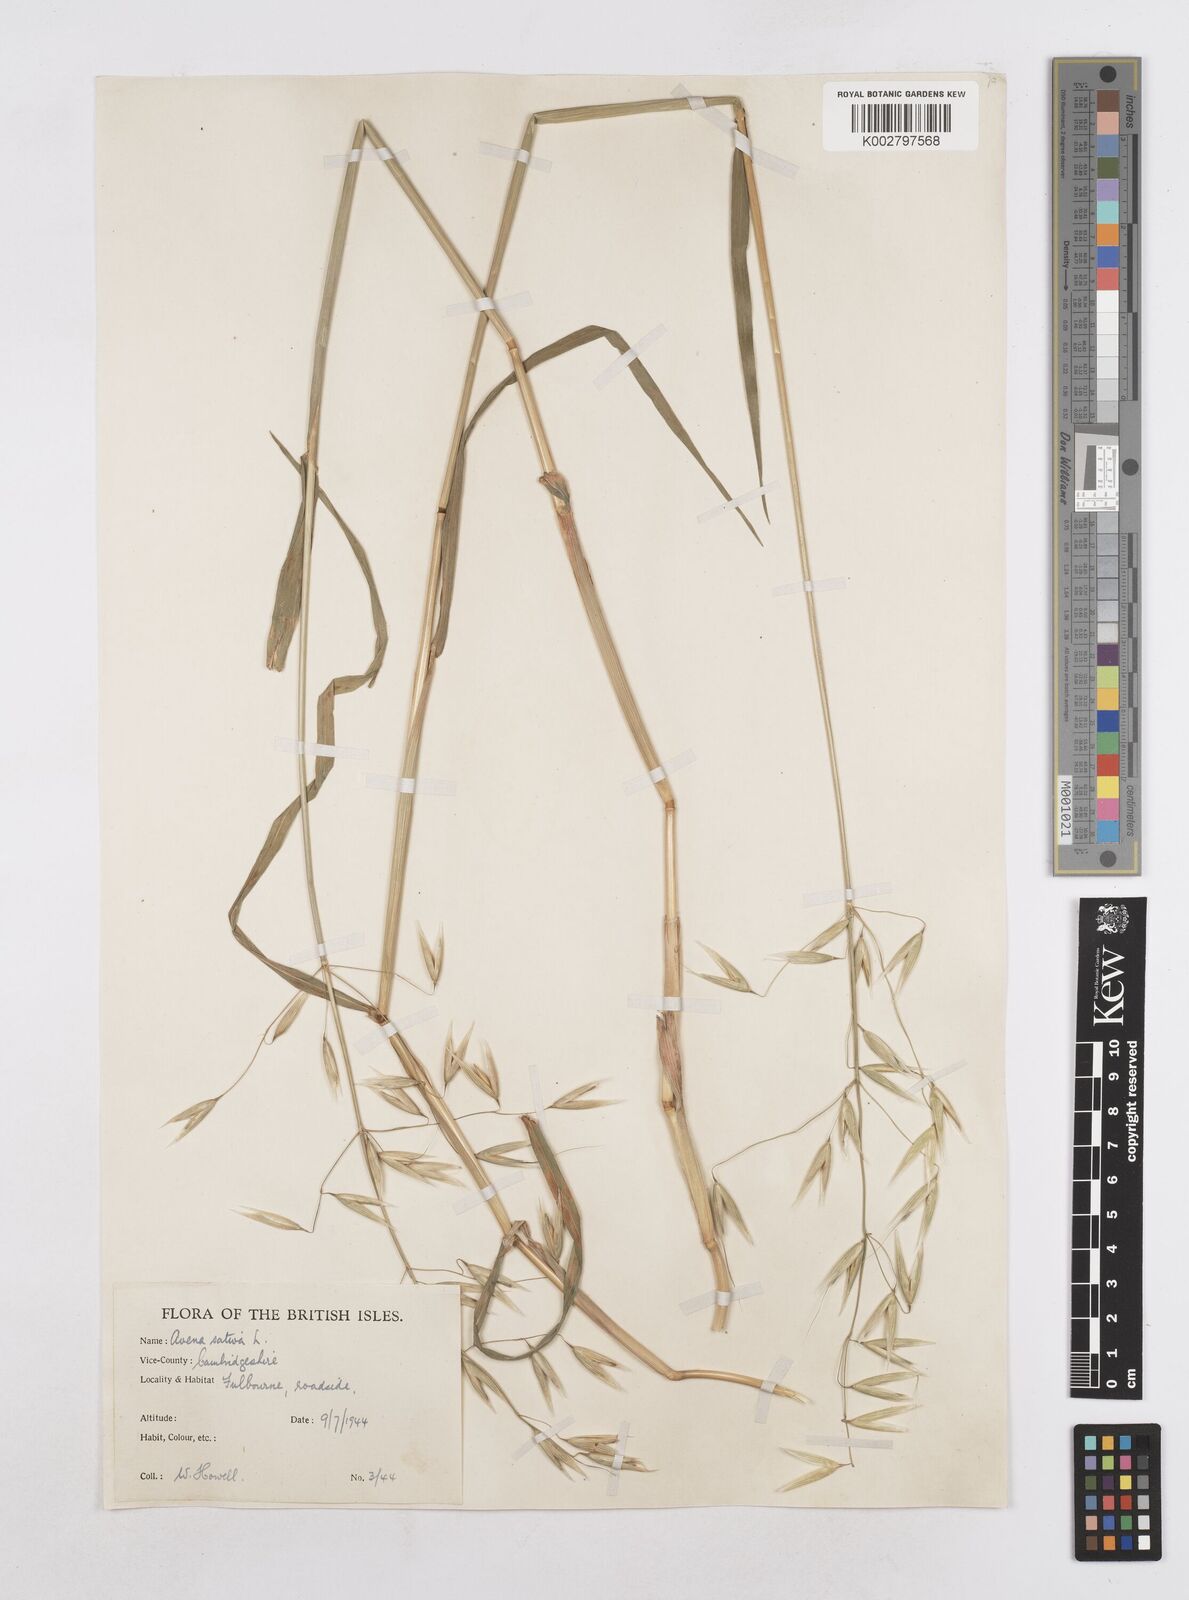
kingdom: Plantae
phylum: Tracheophyta
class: Liliopsida
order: Poales
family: Poaceae
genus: Avena
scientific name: Avena sativa
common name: Oat
